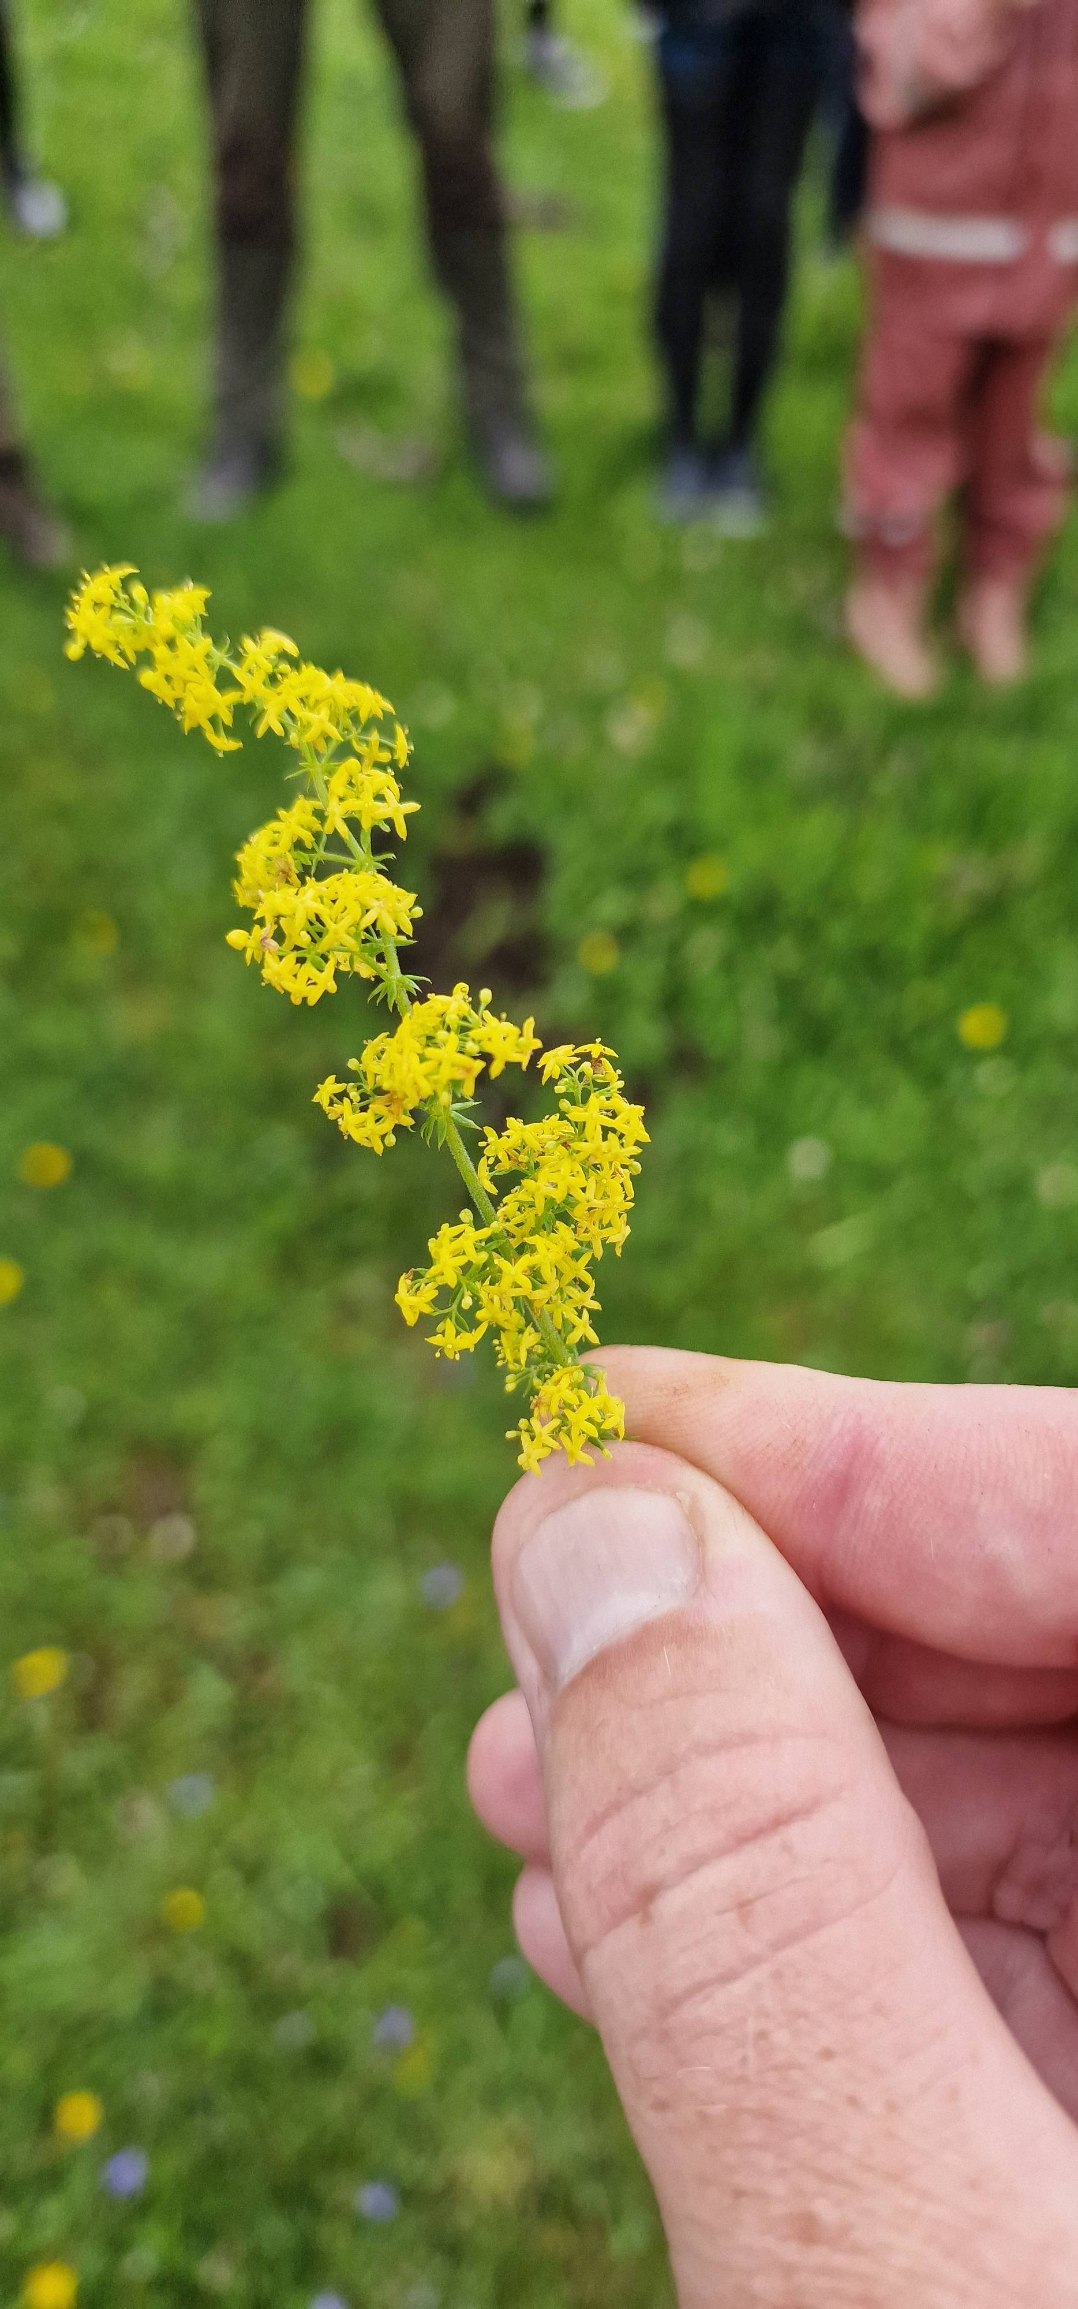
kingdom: Plantae
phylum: Tracheophyta
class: Magnoliopsida
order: Gentianales
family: Rubiaceae
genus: Galium
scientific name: Galium verum
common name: Gul snerre
